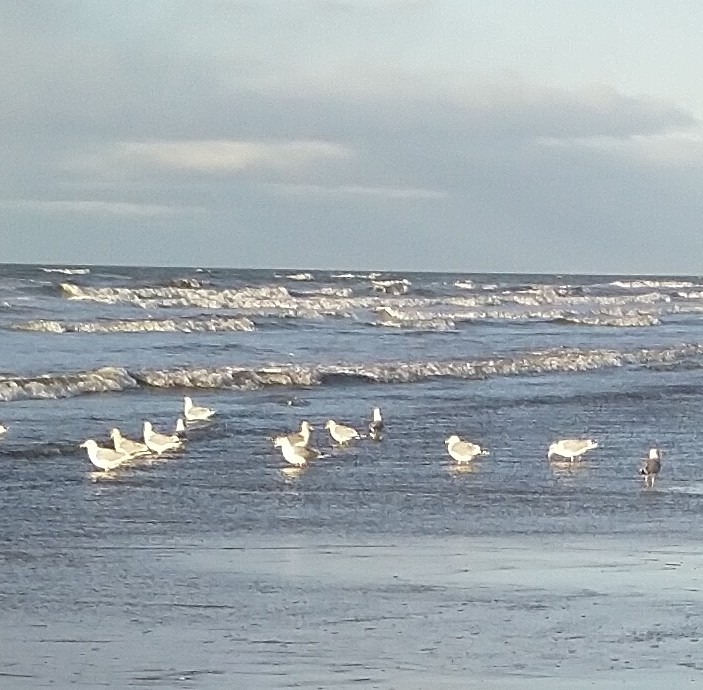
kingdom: Animalia
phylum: Chordata
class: Aves
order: Charadriiformes
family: Laridae
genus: Larus
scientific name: Larus argentatus
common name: Sølvmåge
